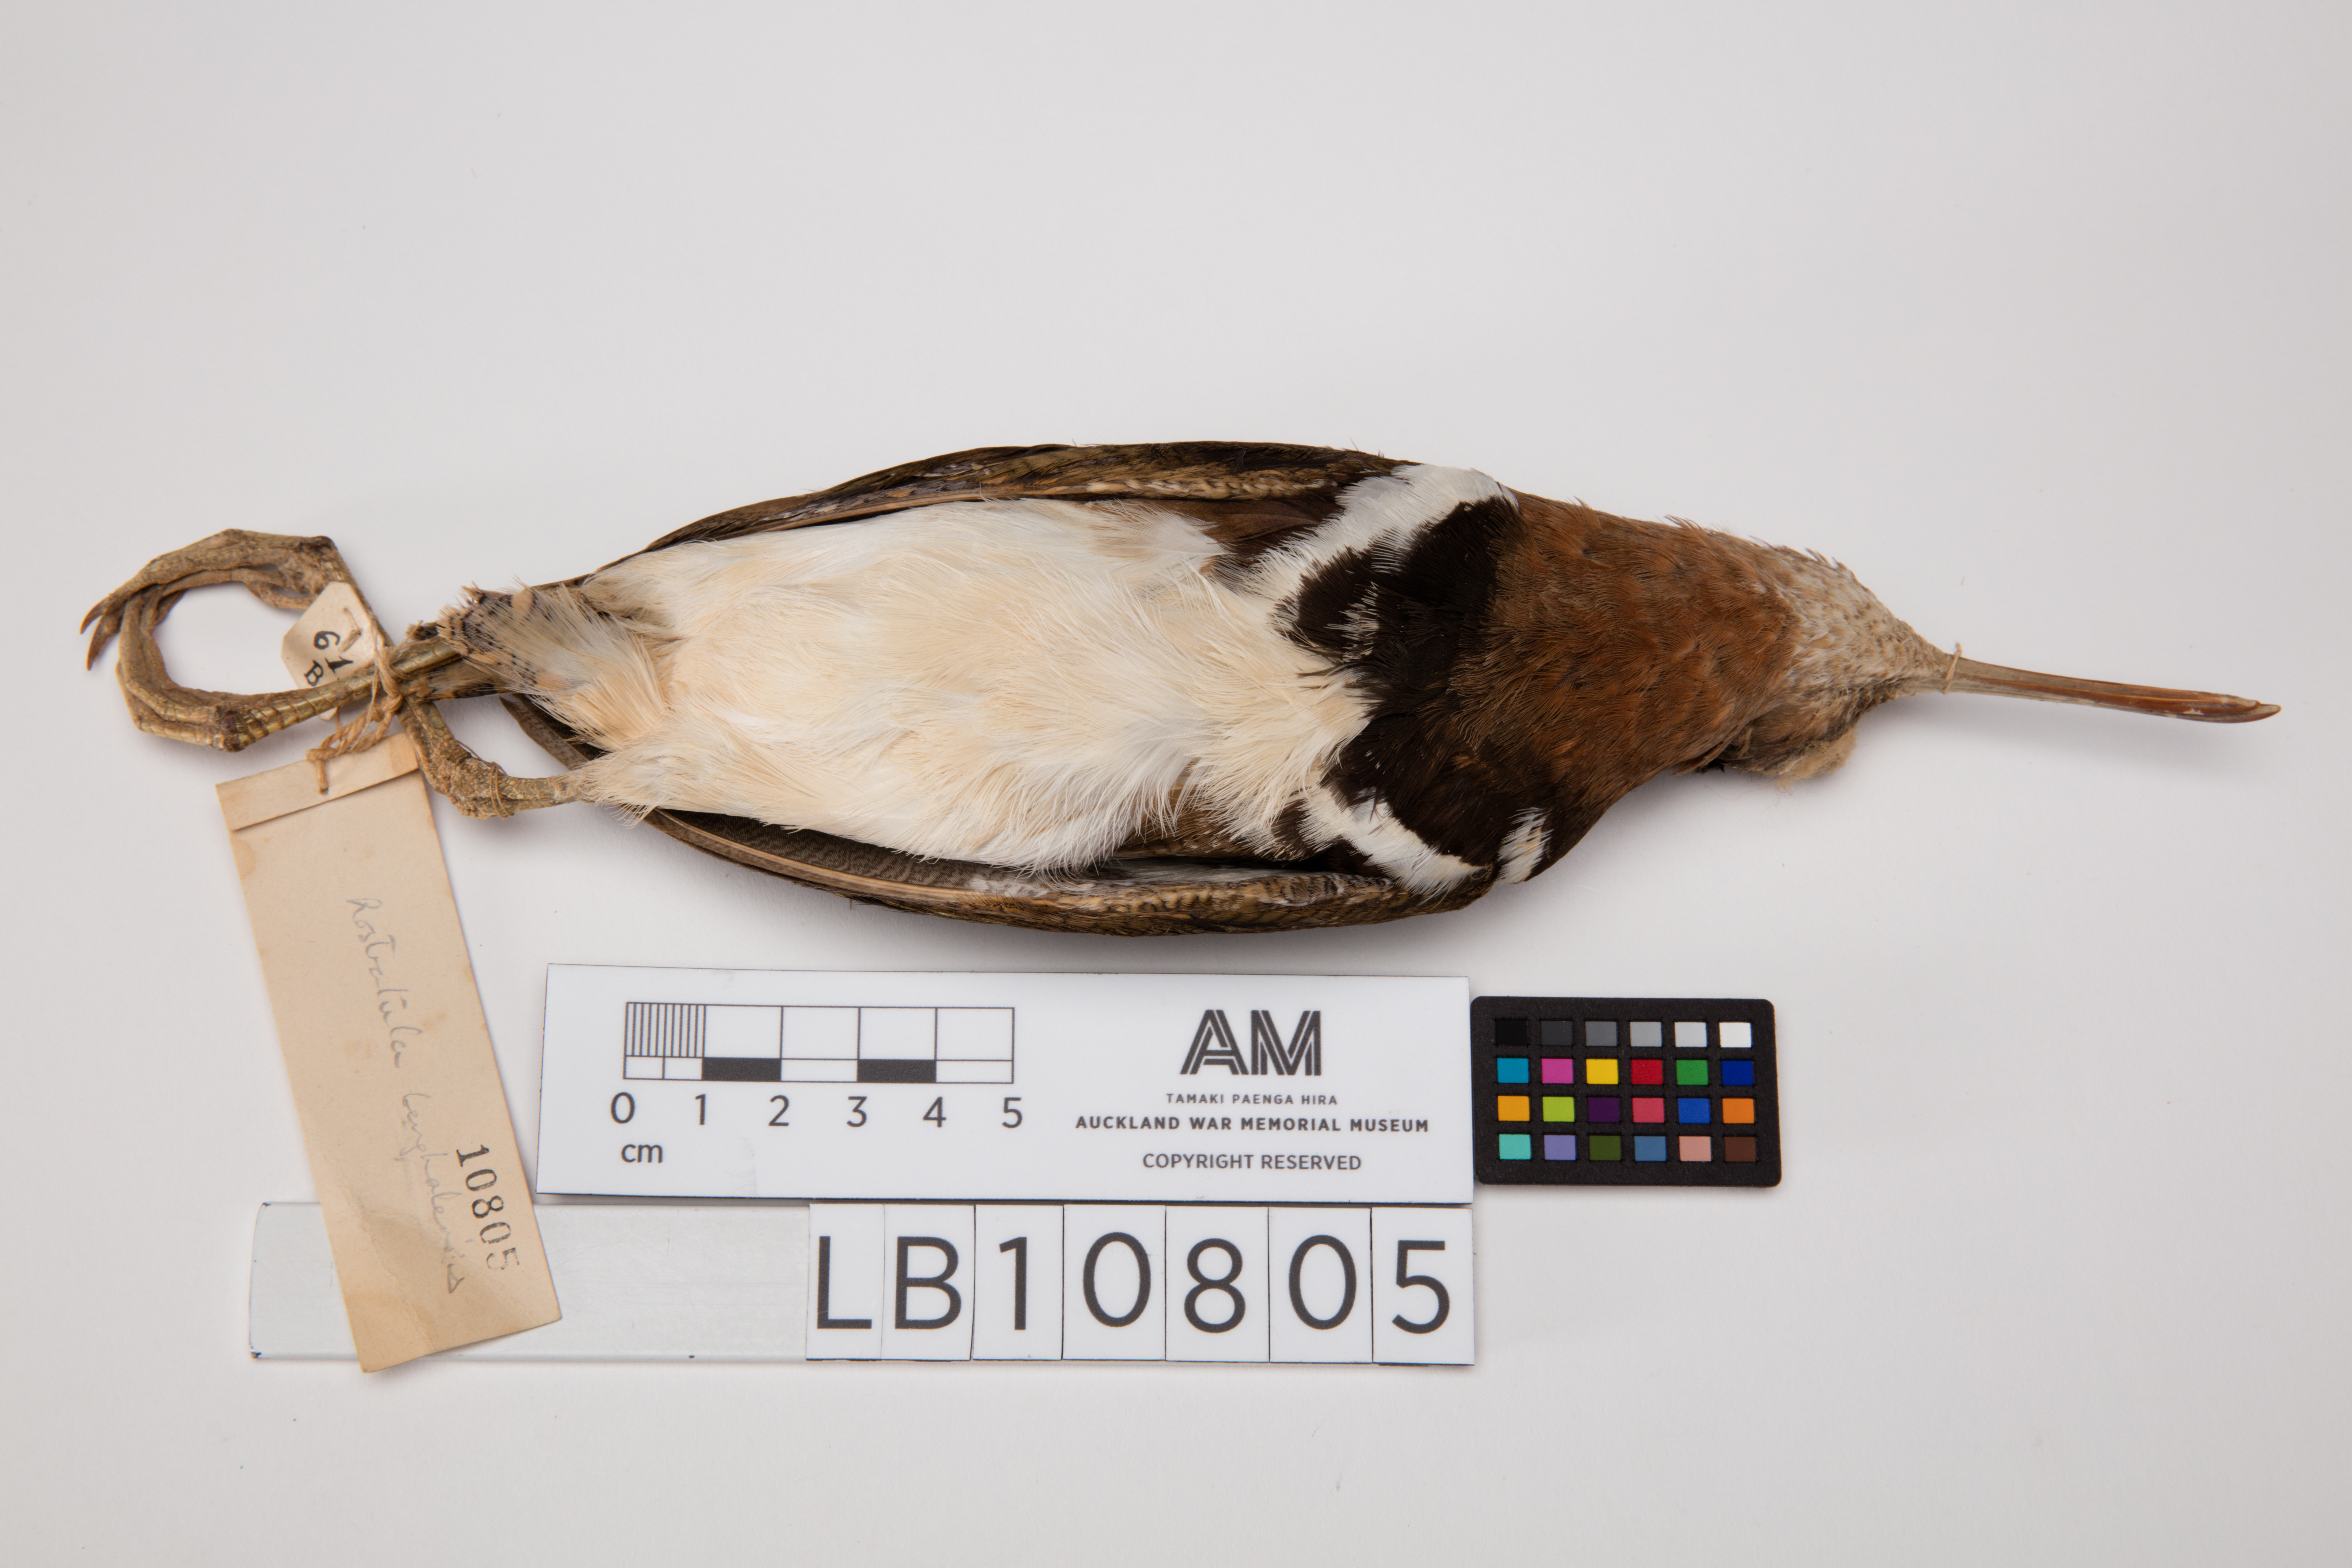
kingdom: Animalia
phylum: Chordata
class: Aves
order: Charadriiformes
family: Rostratulidae
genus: Rostratula
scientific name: Rostratula benghalensis
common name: Greater painted-snipe
